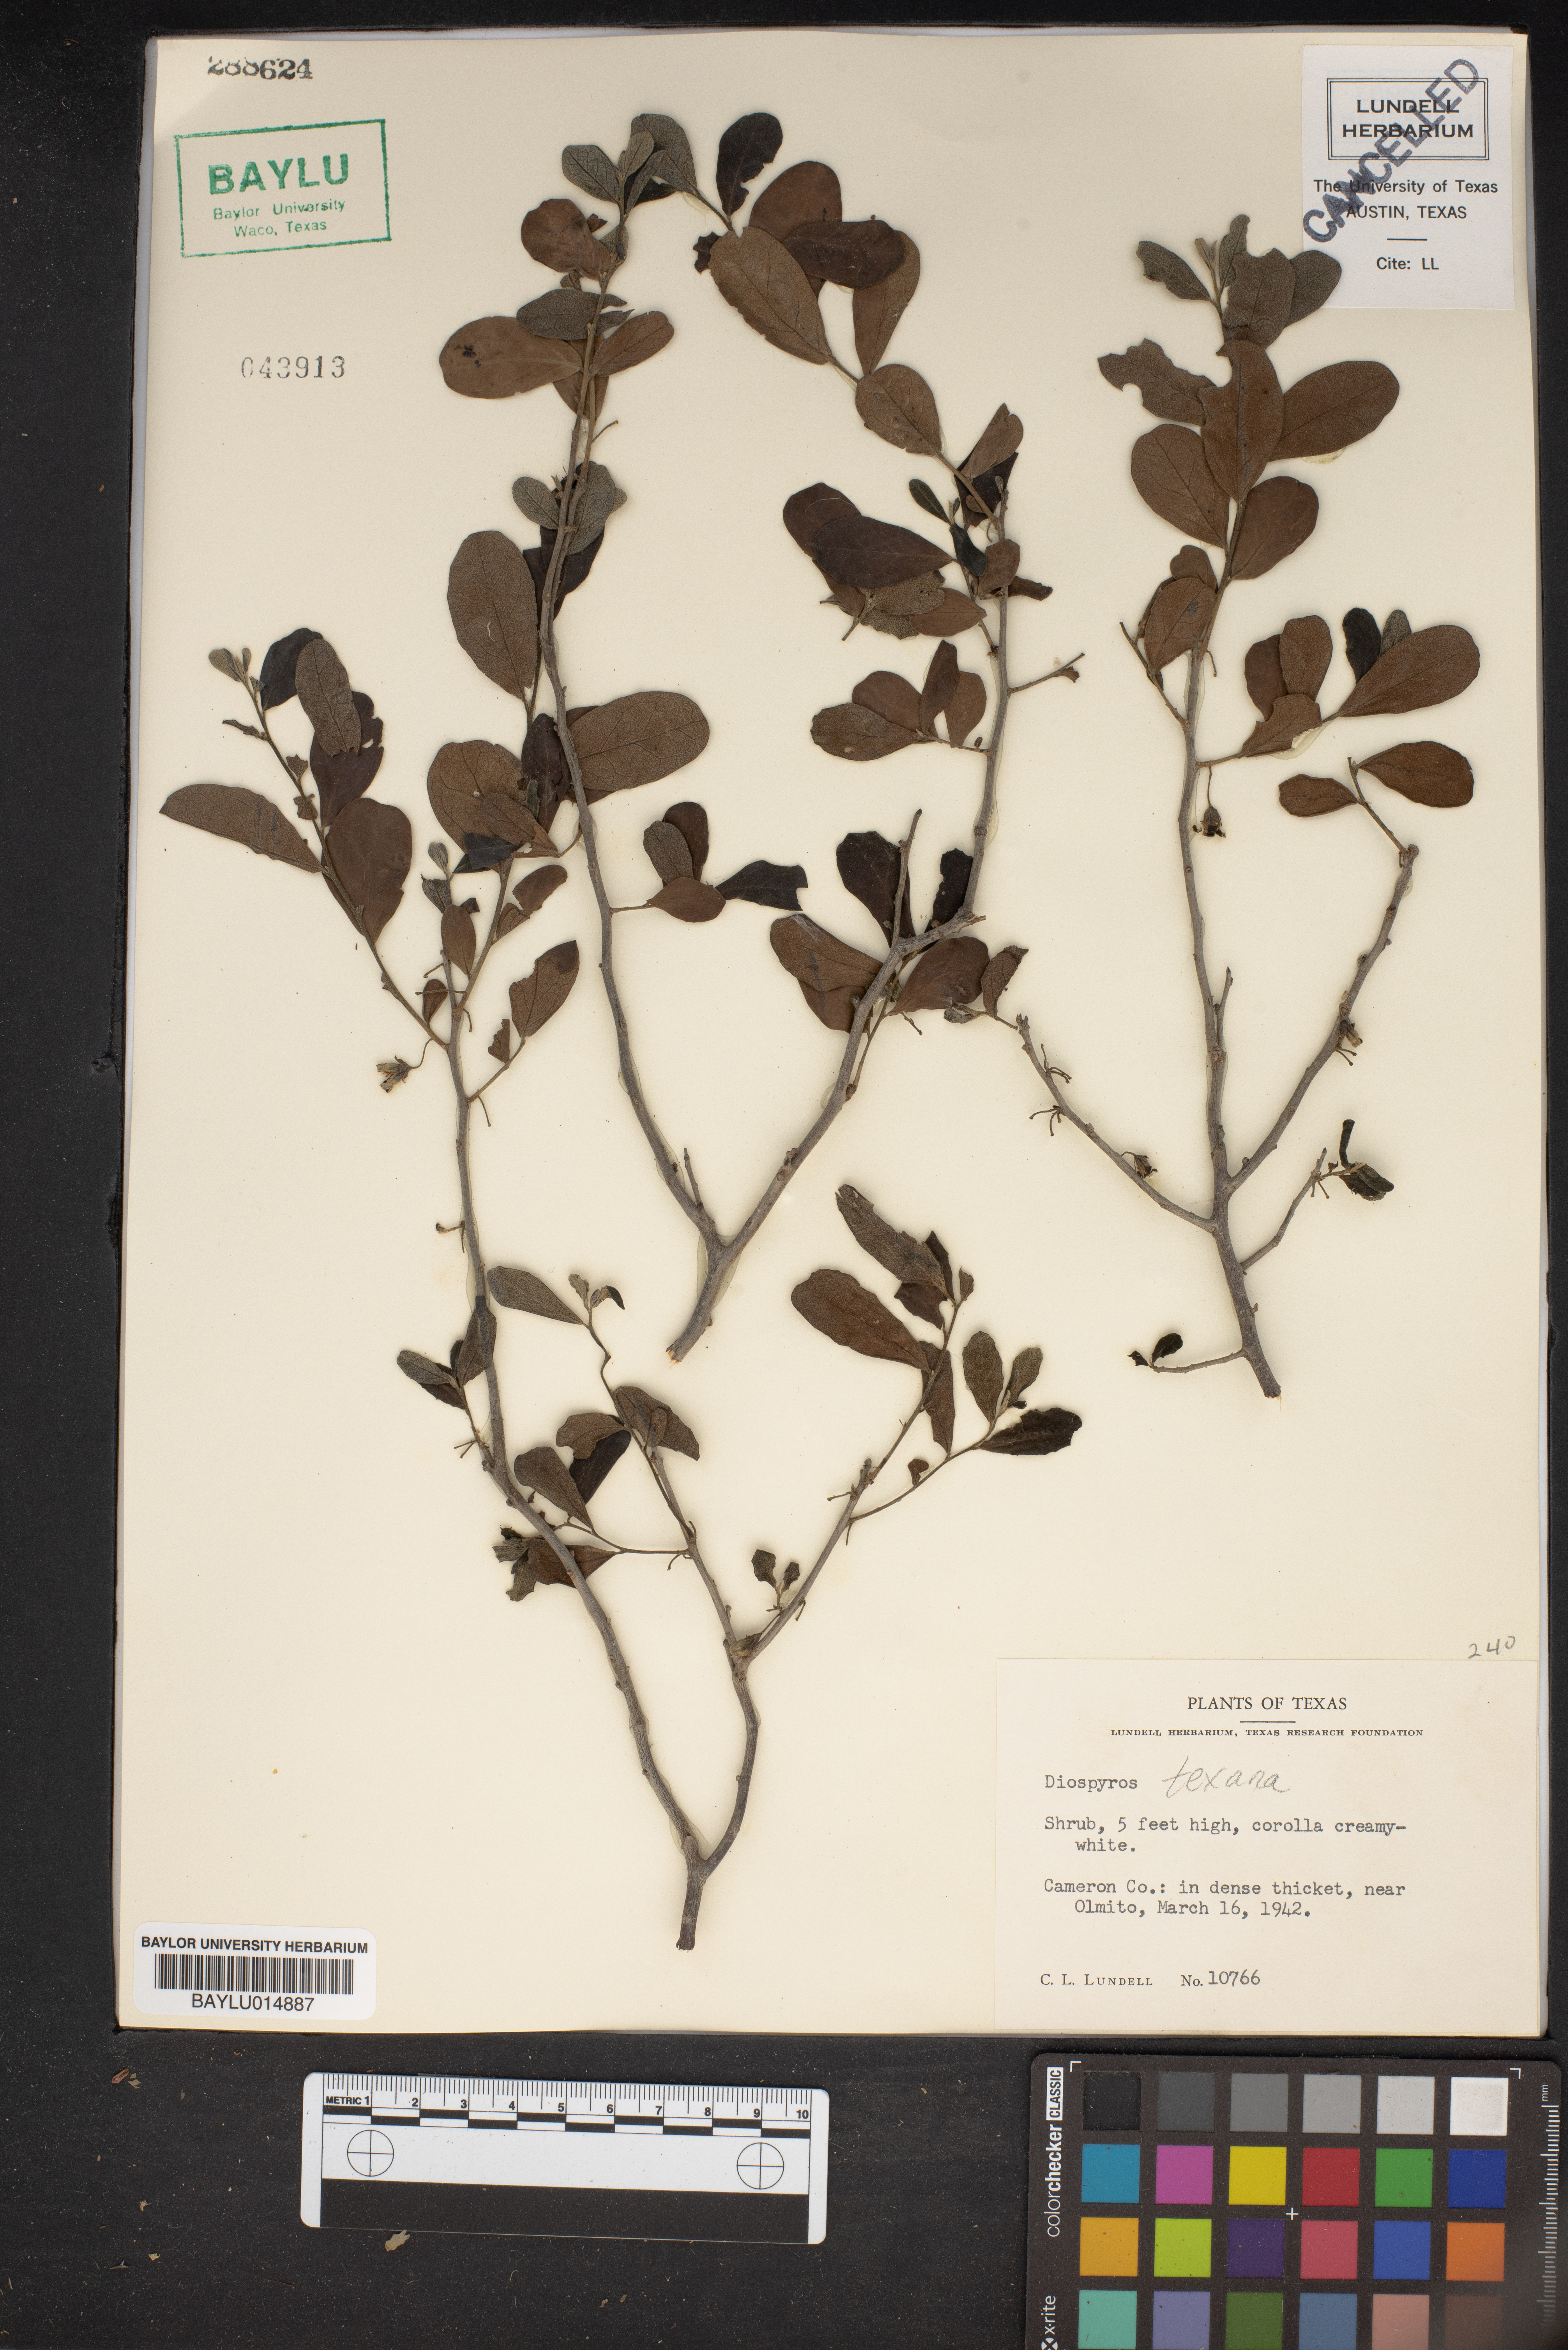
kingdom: Plantae
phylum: Tracheophyta
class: Magnoliopsida
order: Ericales
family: Ebenaceae
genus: Diospyros
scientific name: Diospyros texana
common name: Texas persimmon
